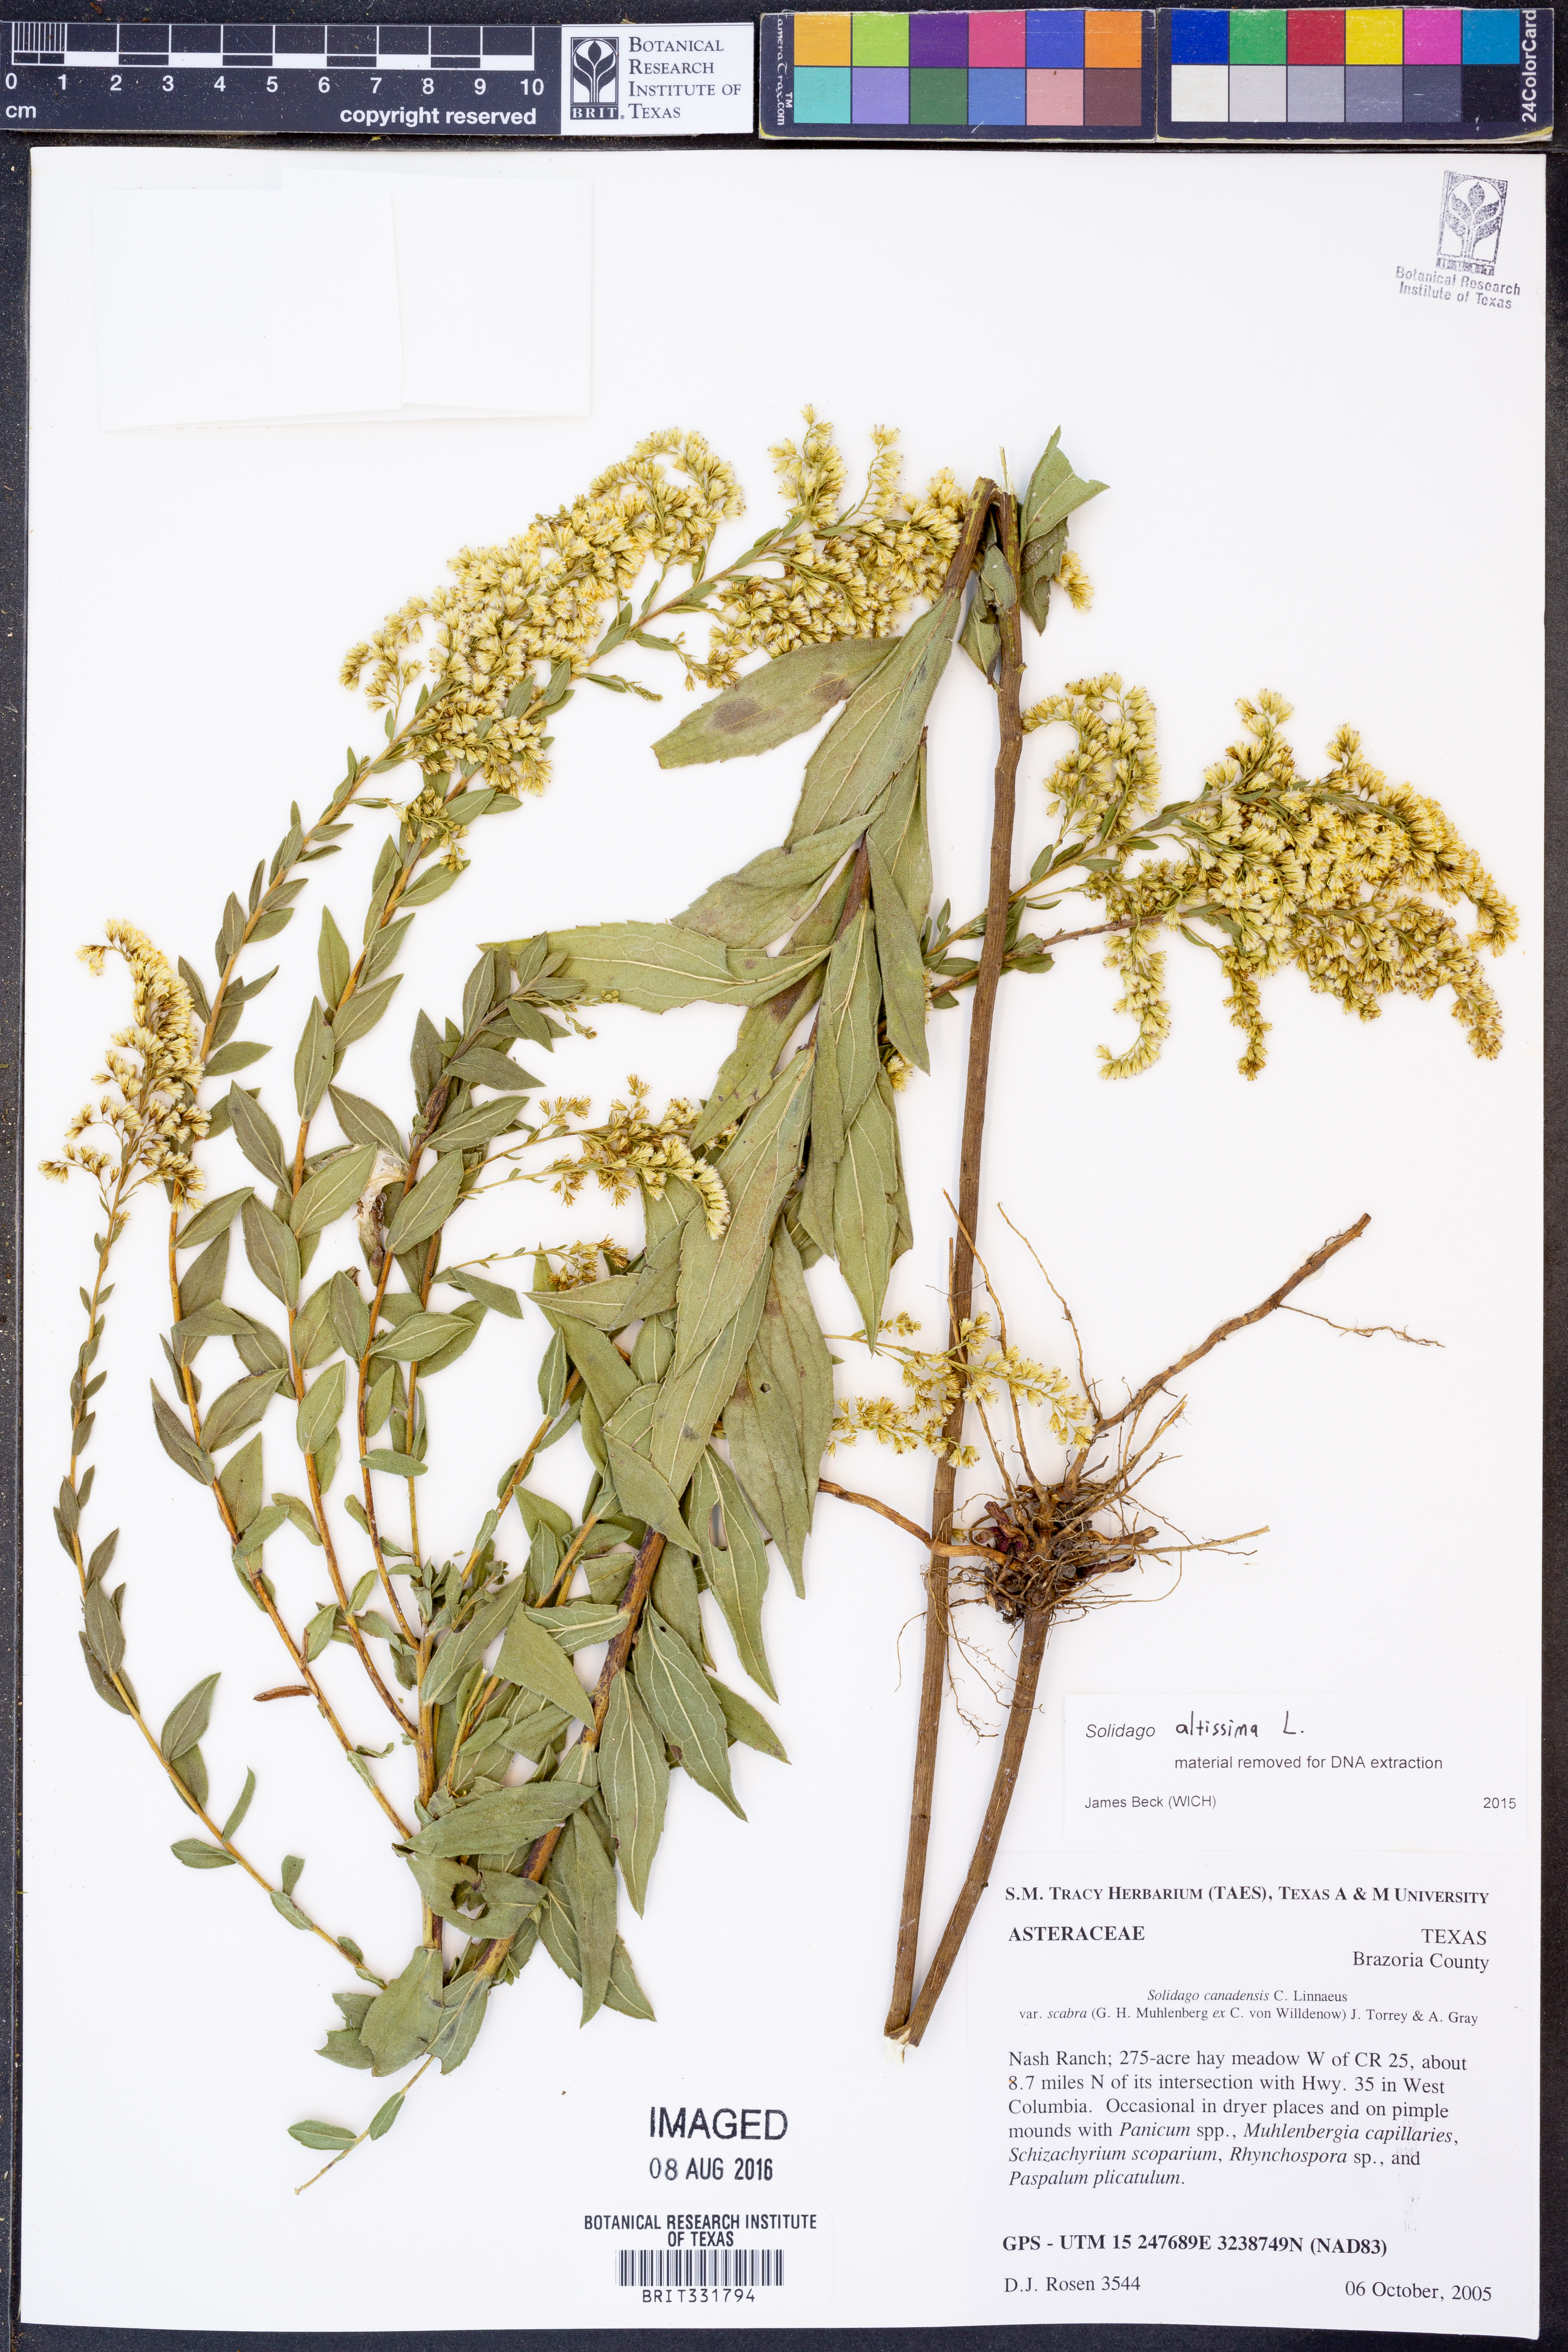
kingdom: Plantae
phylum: Tracheophyta
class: Magnoliopsida
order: Asterales
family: Asteraceae
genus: Solidago
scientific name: Solidago altissima
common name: Late goldenrod
